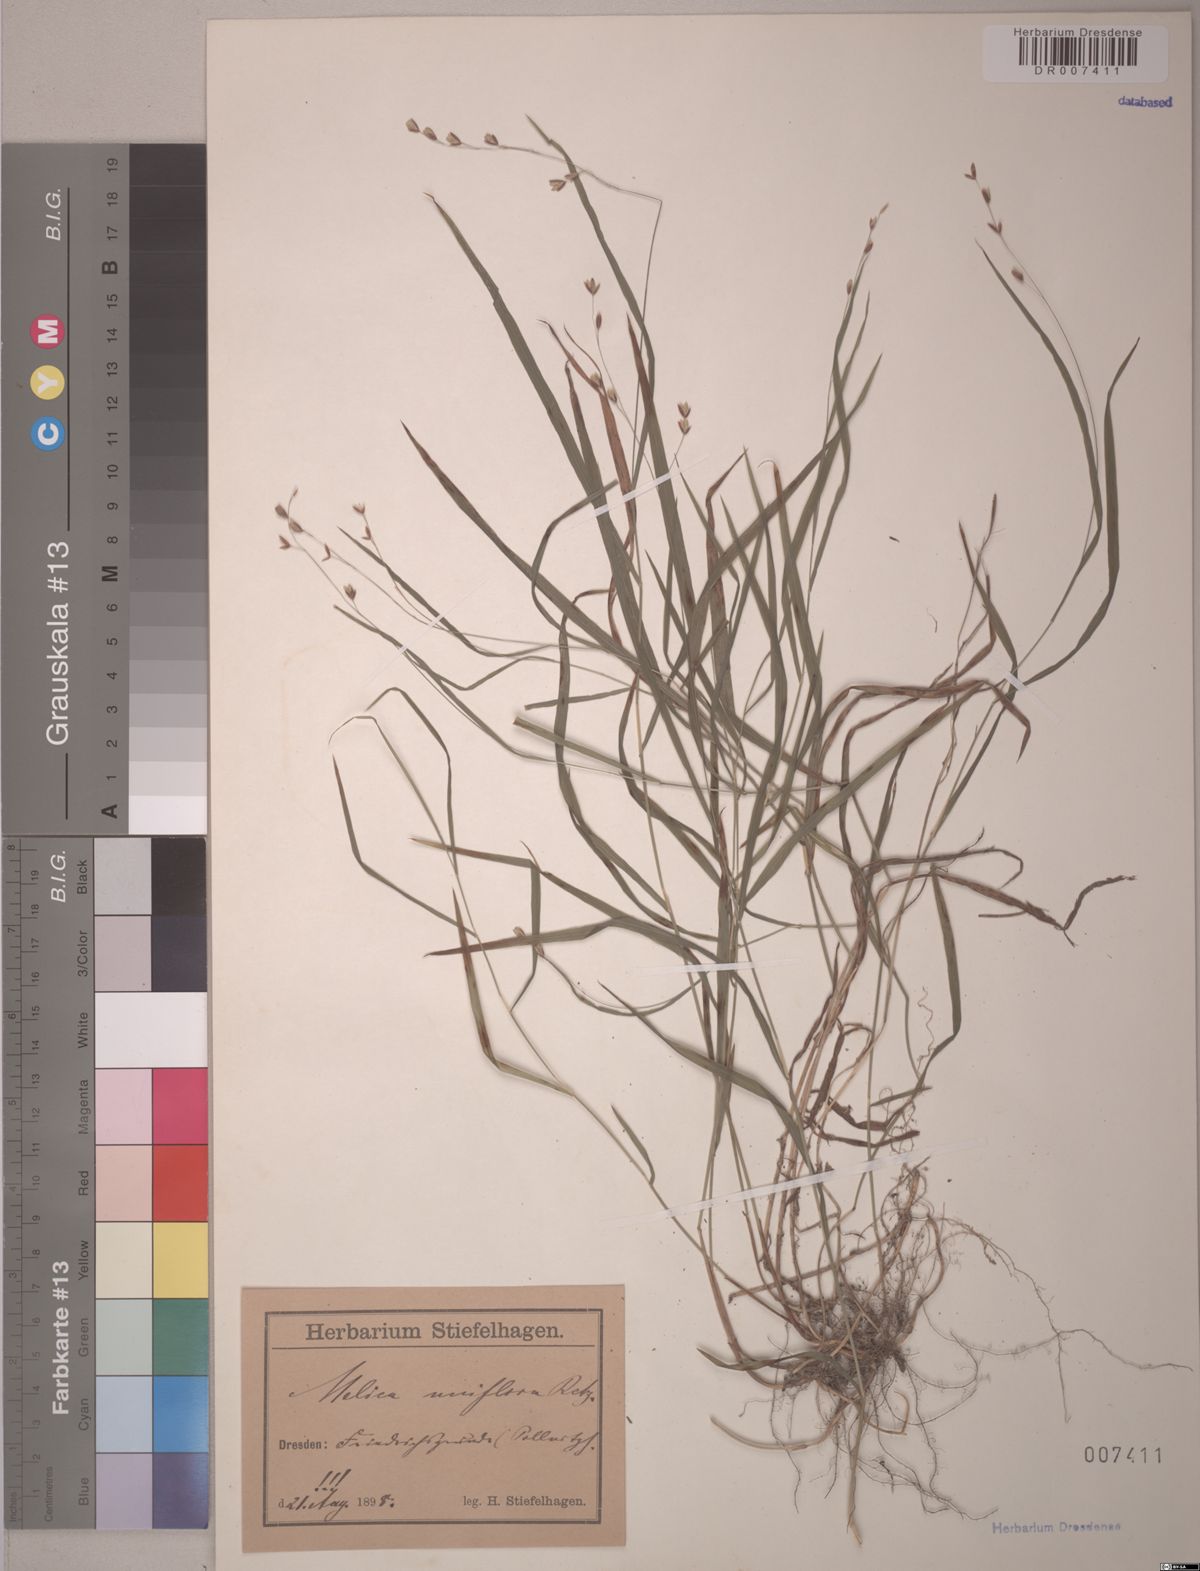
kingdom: Plantae
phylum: Tracheophyta
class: Liliopsida
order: Poales
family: Poaceae
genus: Melica
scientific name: Melica uniflora
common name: Wood melick
